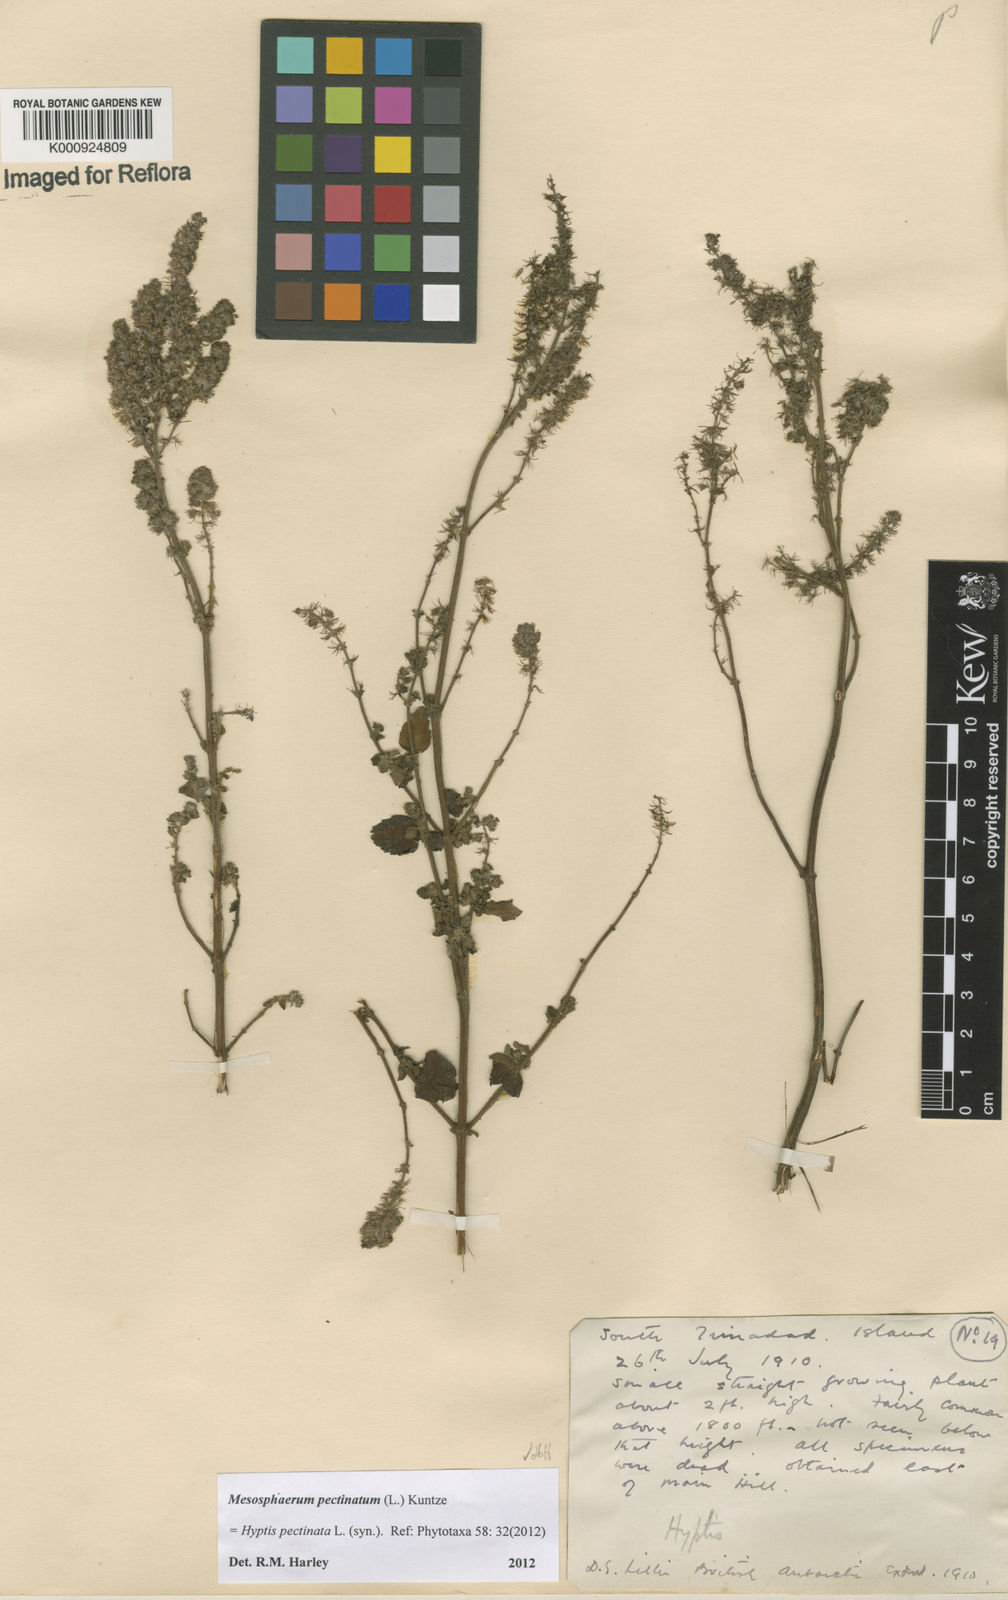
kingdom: Plantae
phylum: Tracheophyta
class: Magnoliopsida
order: Lamiales
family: Lamiaceae
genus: Mesosphaerum
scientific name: Mesosphaerum pectinatum
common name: Comb hyptis
